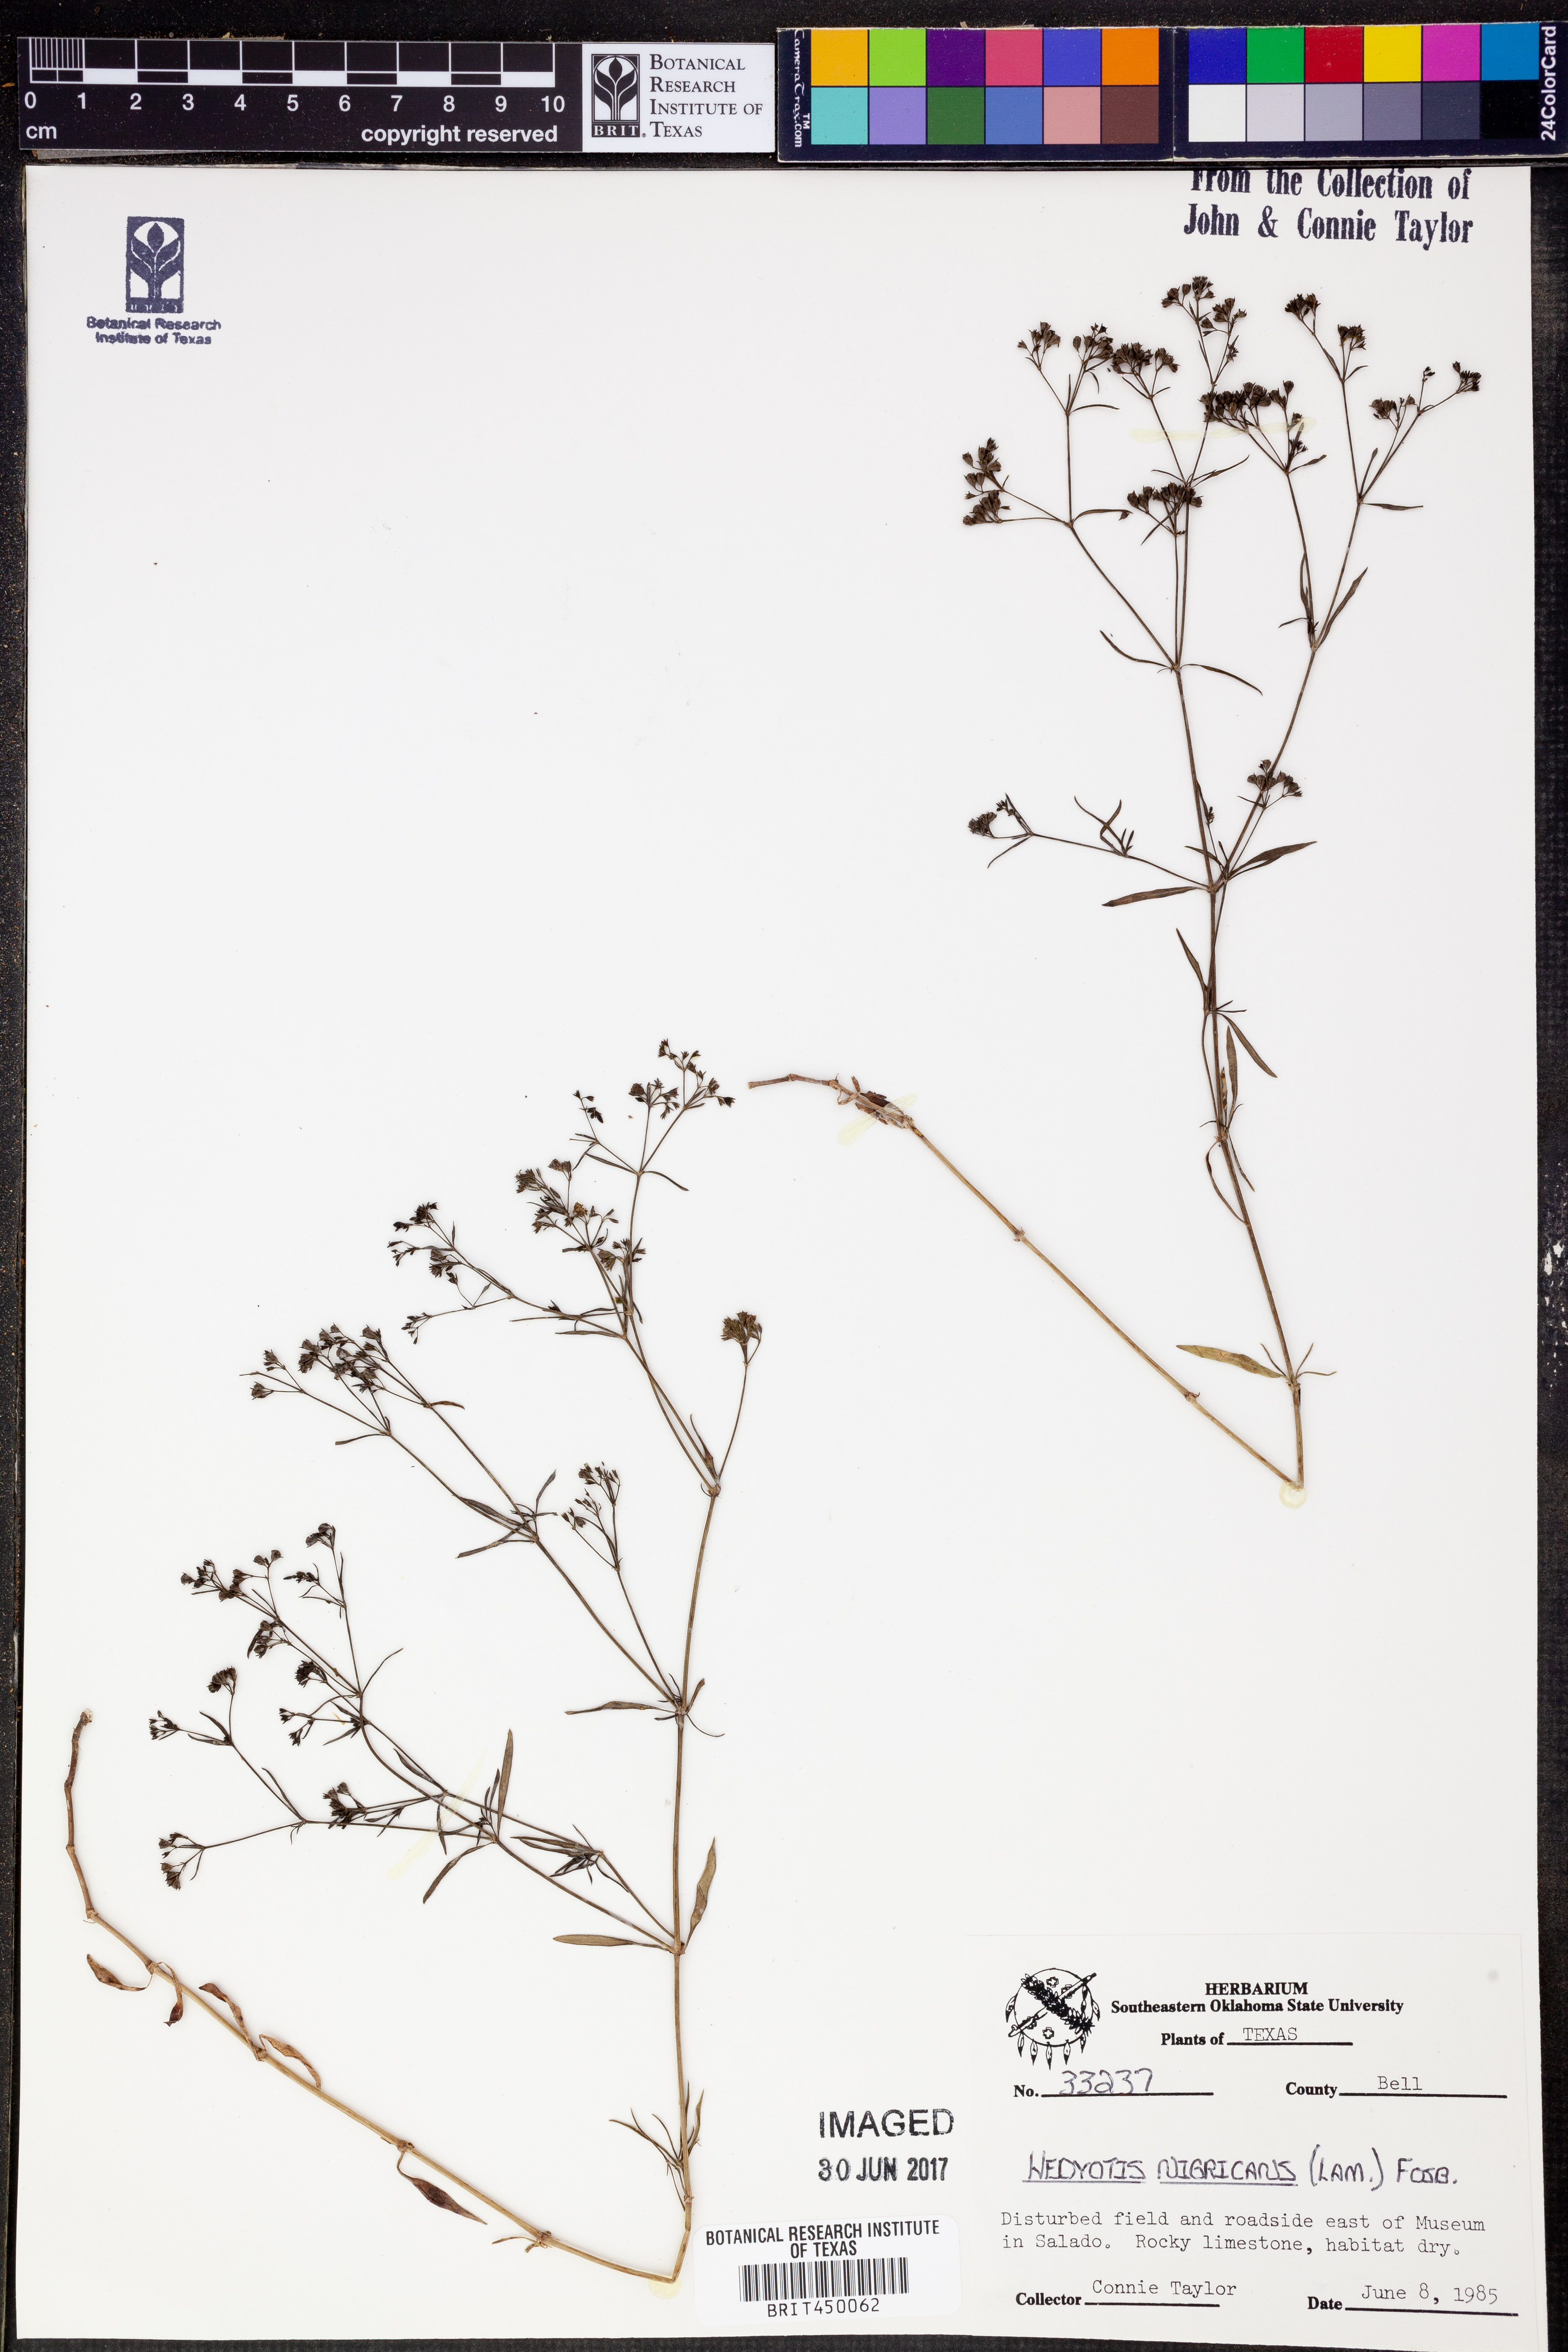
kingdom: Plantae
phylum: Tracheophyta
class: Magnoliopsida
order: Gentianales
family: Rubiaceae
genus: Stenaria
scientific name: Stenaria nigricans
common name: Diamondflowers
